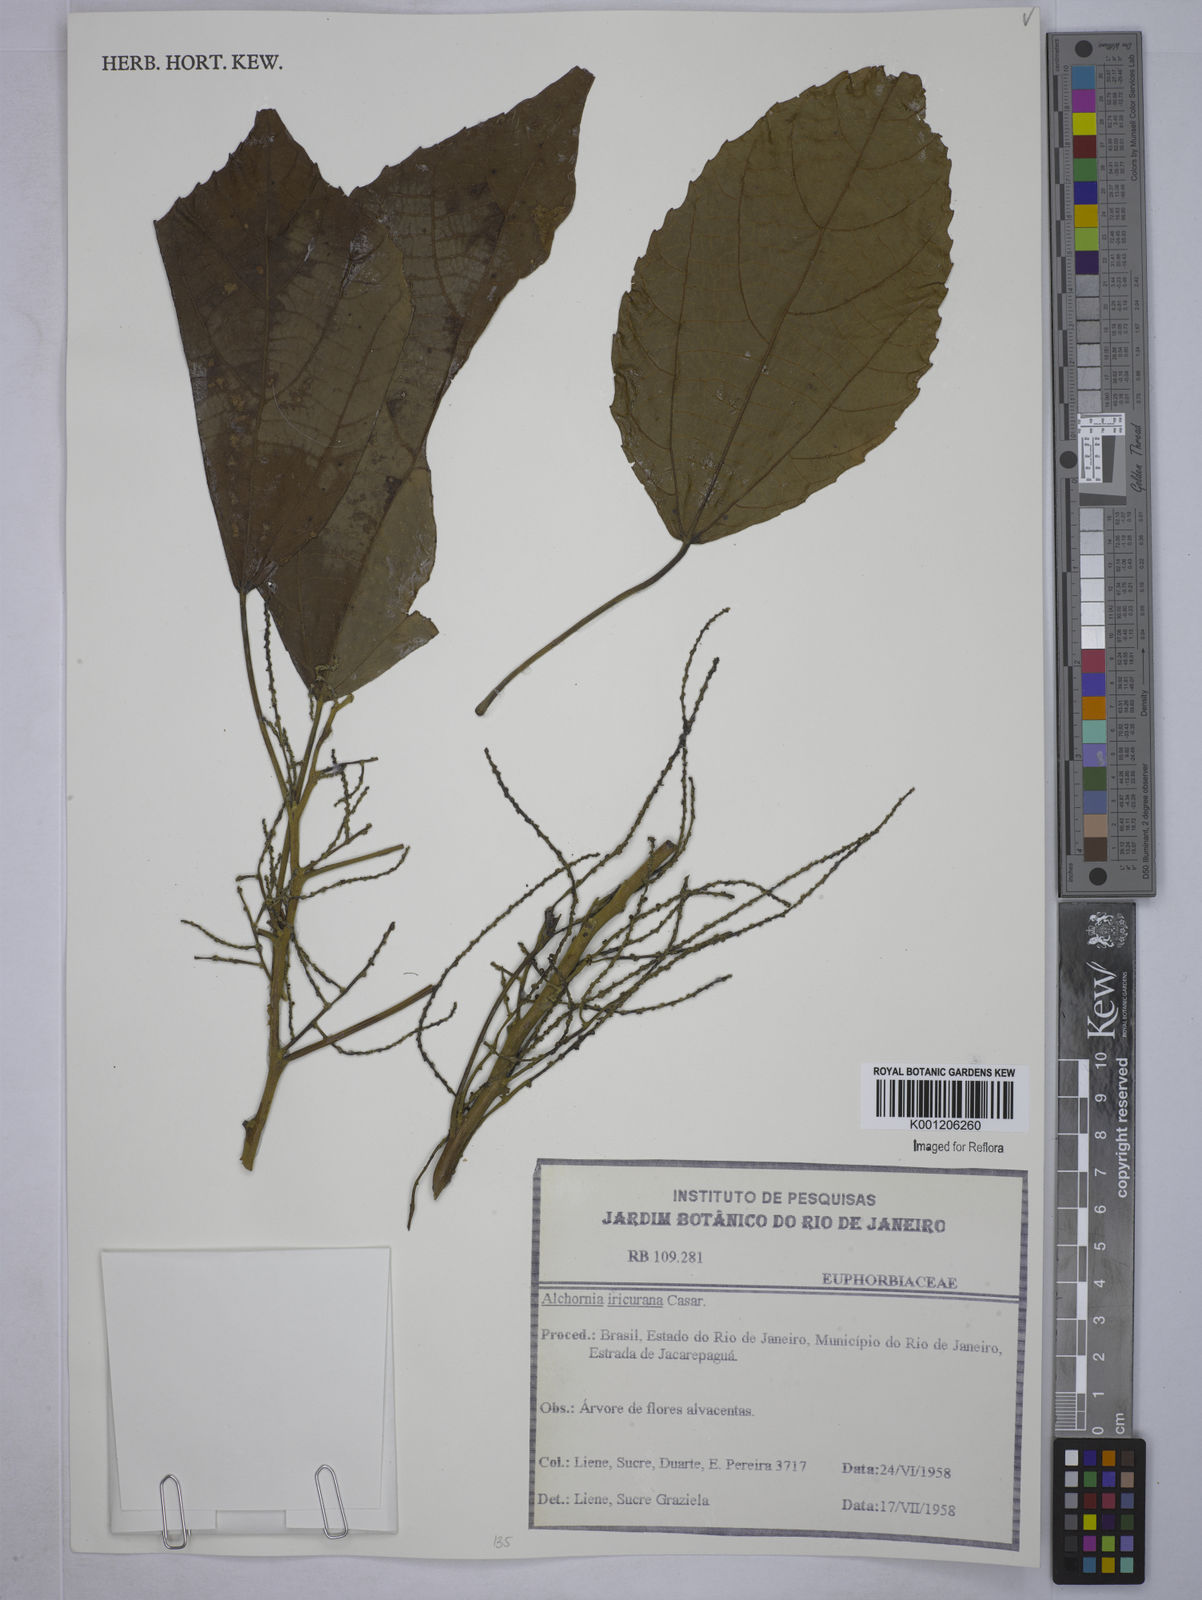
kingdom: Plantae
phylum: Tracheophyta
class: Magnoliopsida
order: Malpighiales
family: Euphorbiaceae
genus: Alchornea
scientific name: Alchornea glandulosa
